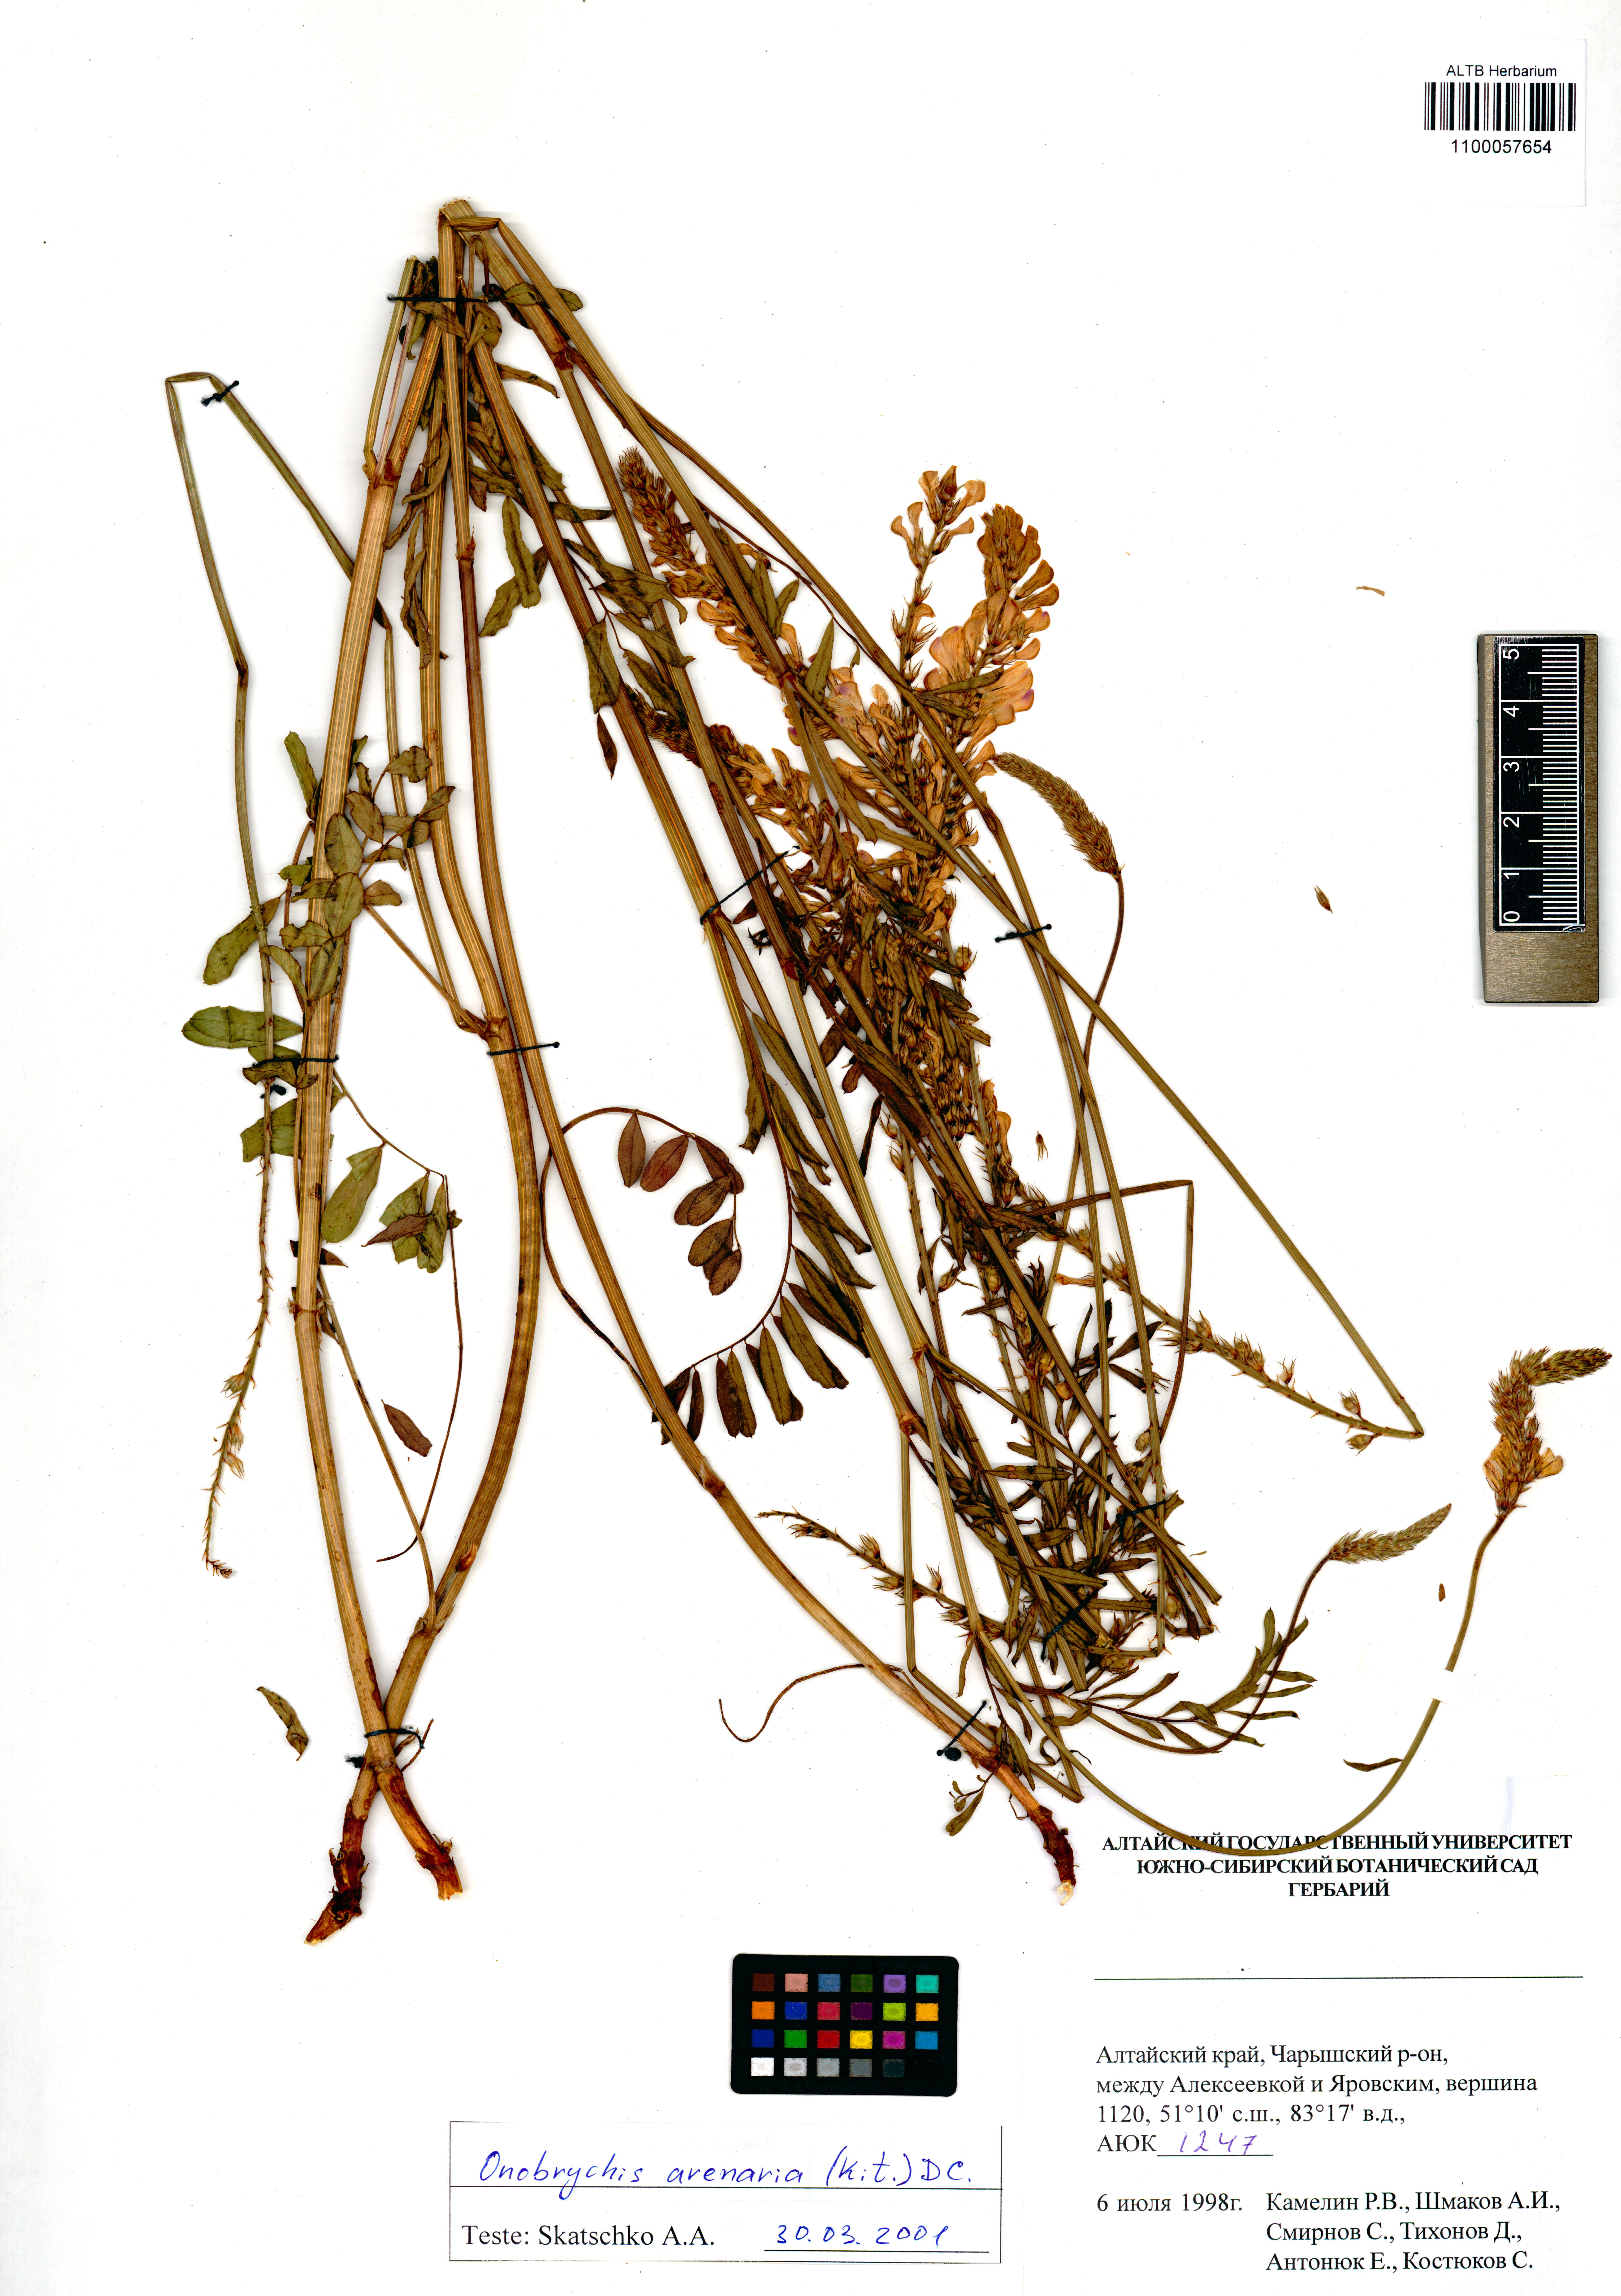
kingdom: Plantae
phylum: Tracheophyta
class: Magnoliopsida
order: Fabales
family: Fabaceae
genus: Onobrychis
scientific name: Onobrychis arenaria
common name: Sand esparcet
